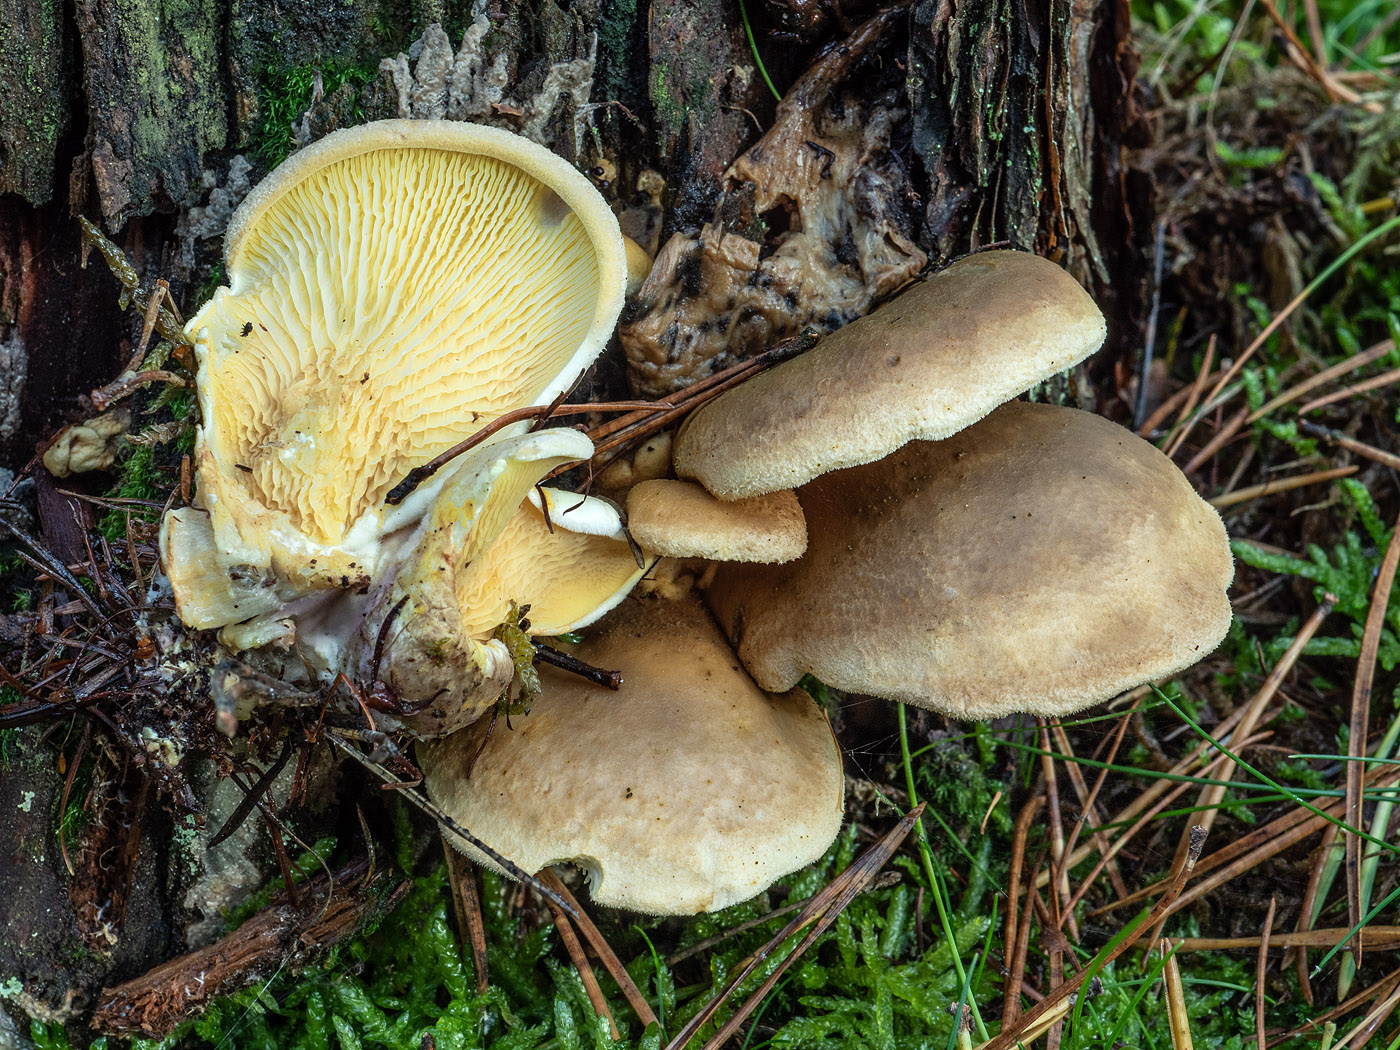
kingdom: Fungi
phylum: Basidiomycota
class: Agaricomycetes
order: Boletales
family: Tapinellaceae
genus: Tapinella
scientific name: Tapinella panuoides
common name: tømmer-viftesvamp
